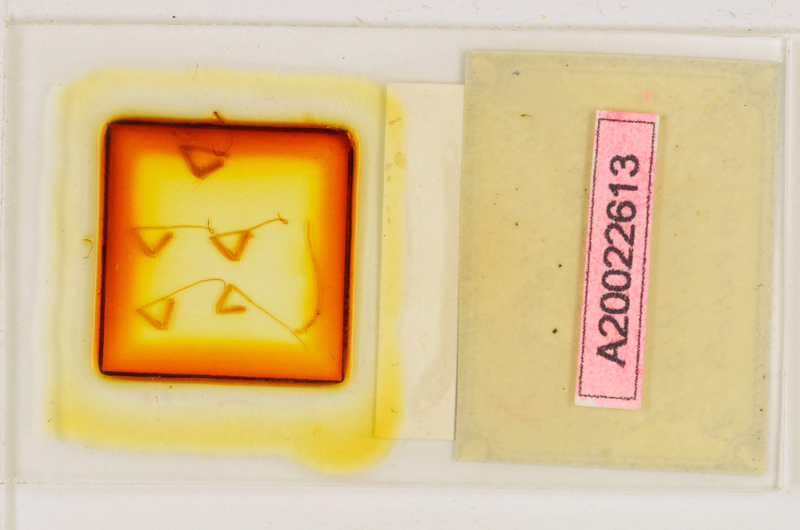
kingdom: Animalia
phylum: Arthropoda
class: Chilopoda
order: Scutigeromorpha
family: Scutigeridae
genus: Scutigera
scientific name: Scutigera coleoptrata
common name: House centipede
